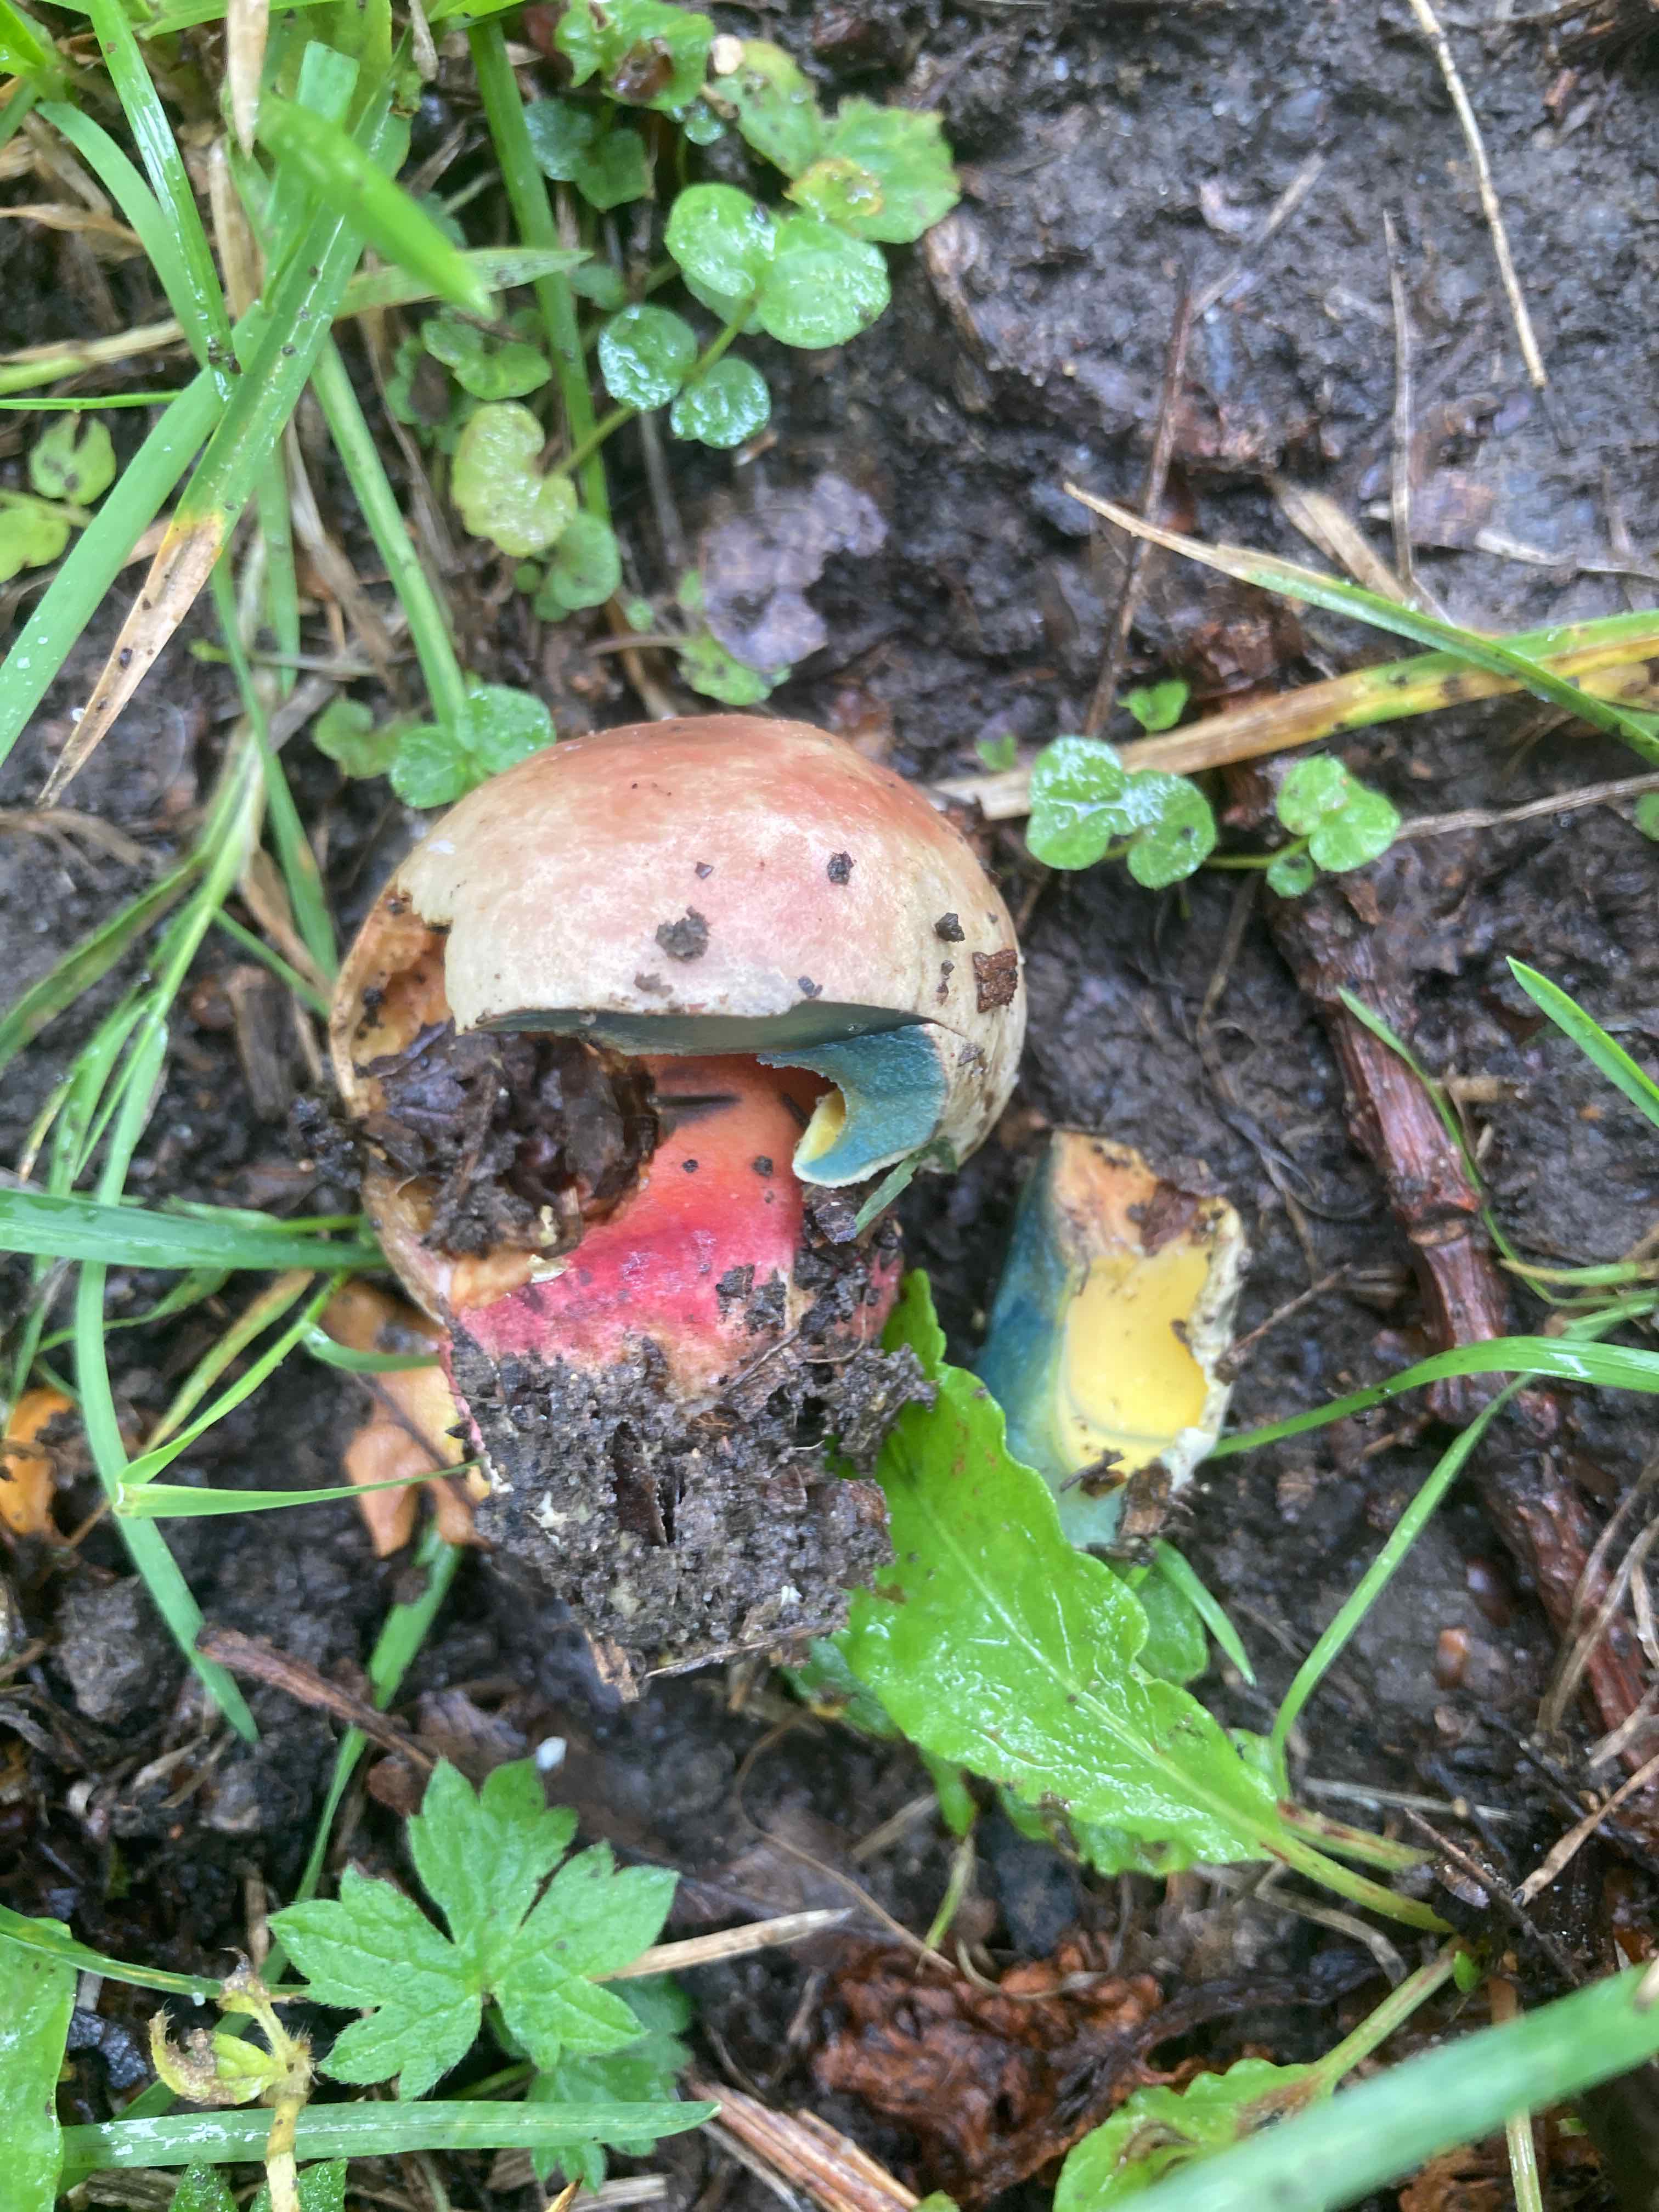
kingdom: Fungi
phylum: Basidiomycota
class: Agaricomycetes
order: Boletales
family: Boletaceae
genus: Caloboletus
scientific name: Caloboletus calopus
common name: skønfodet rørhat
